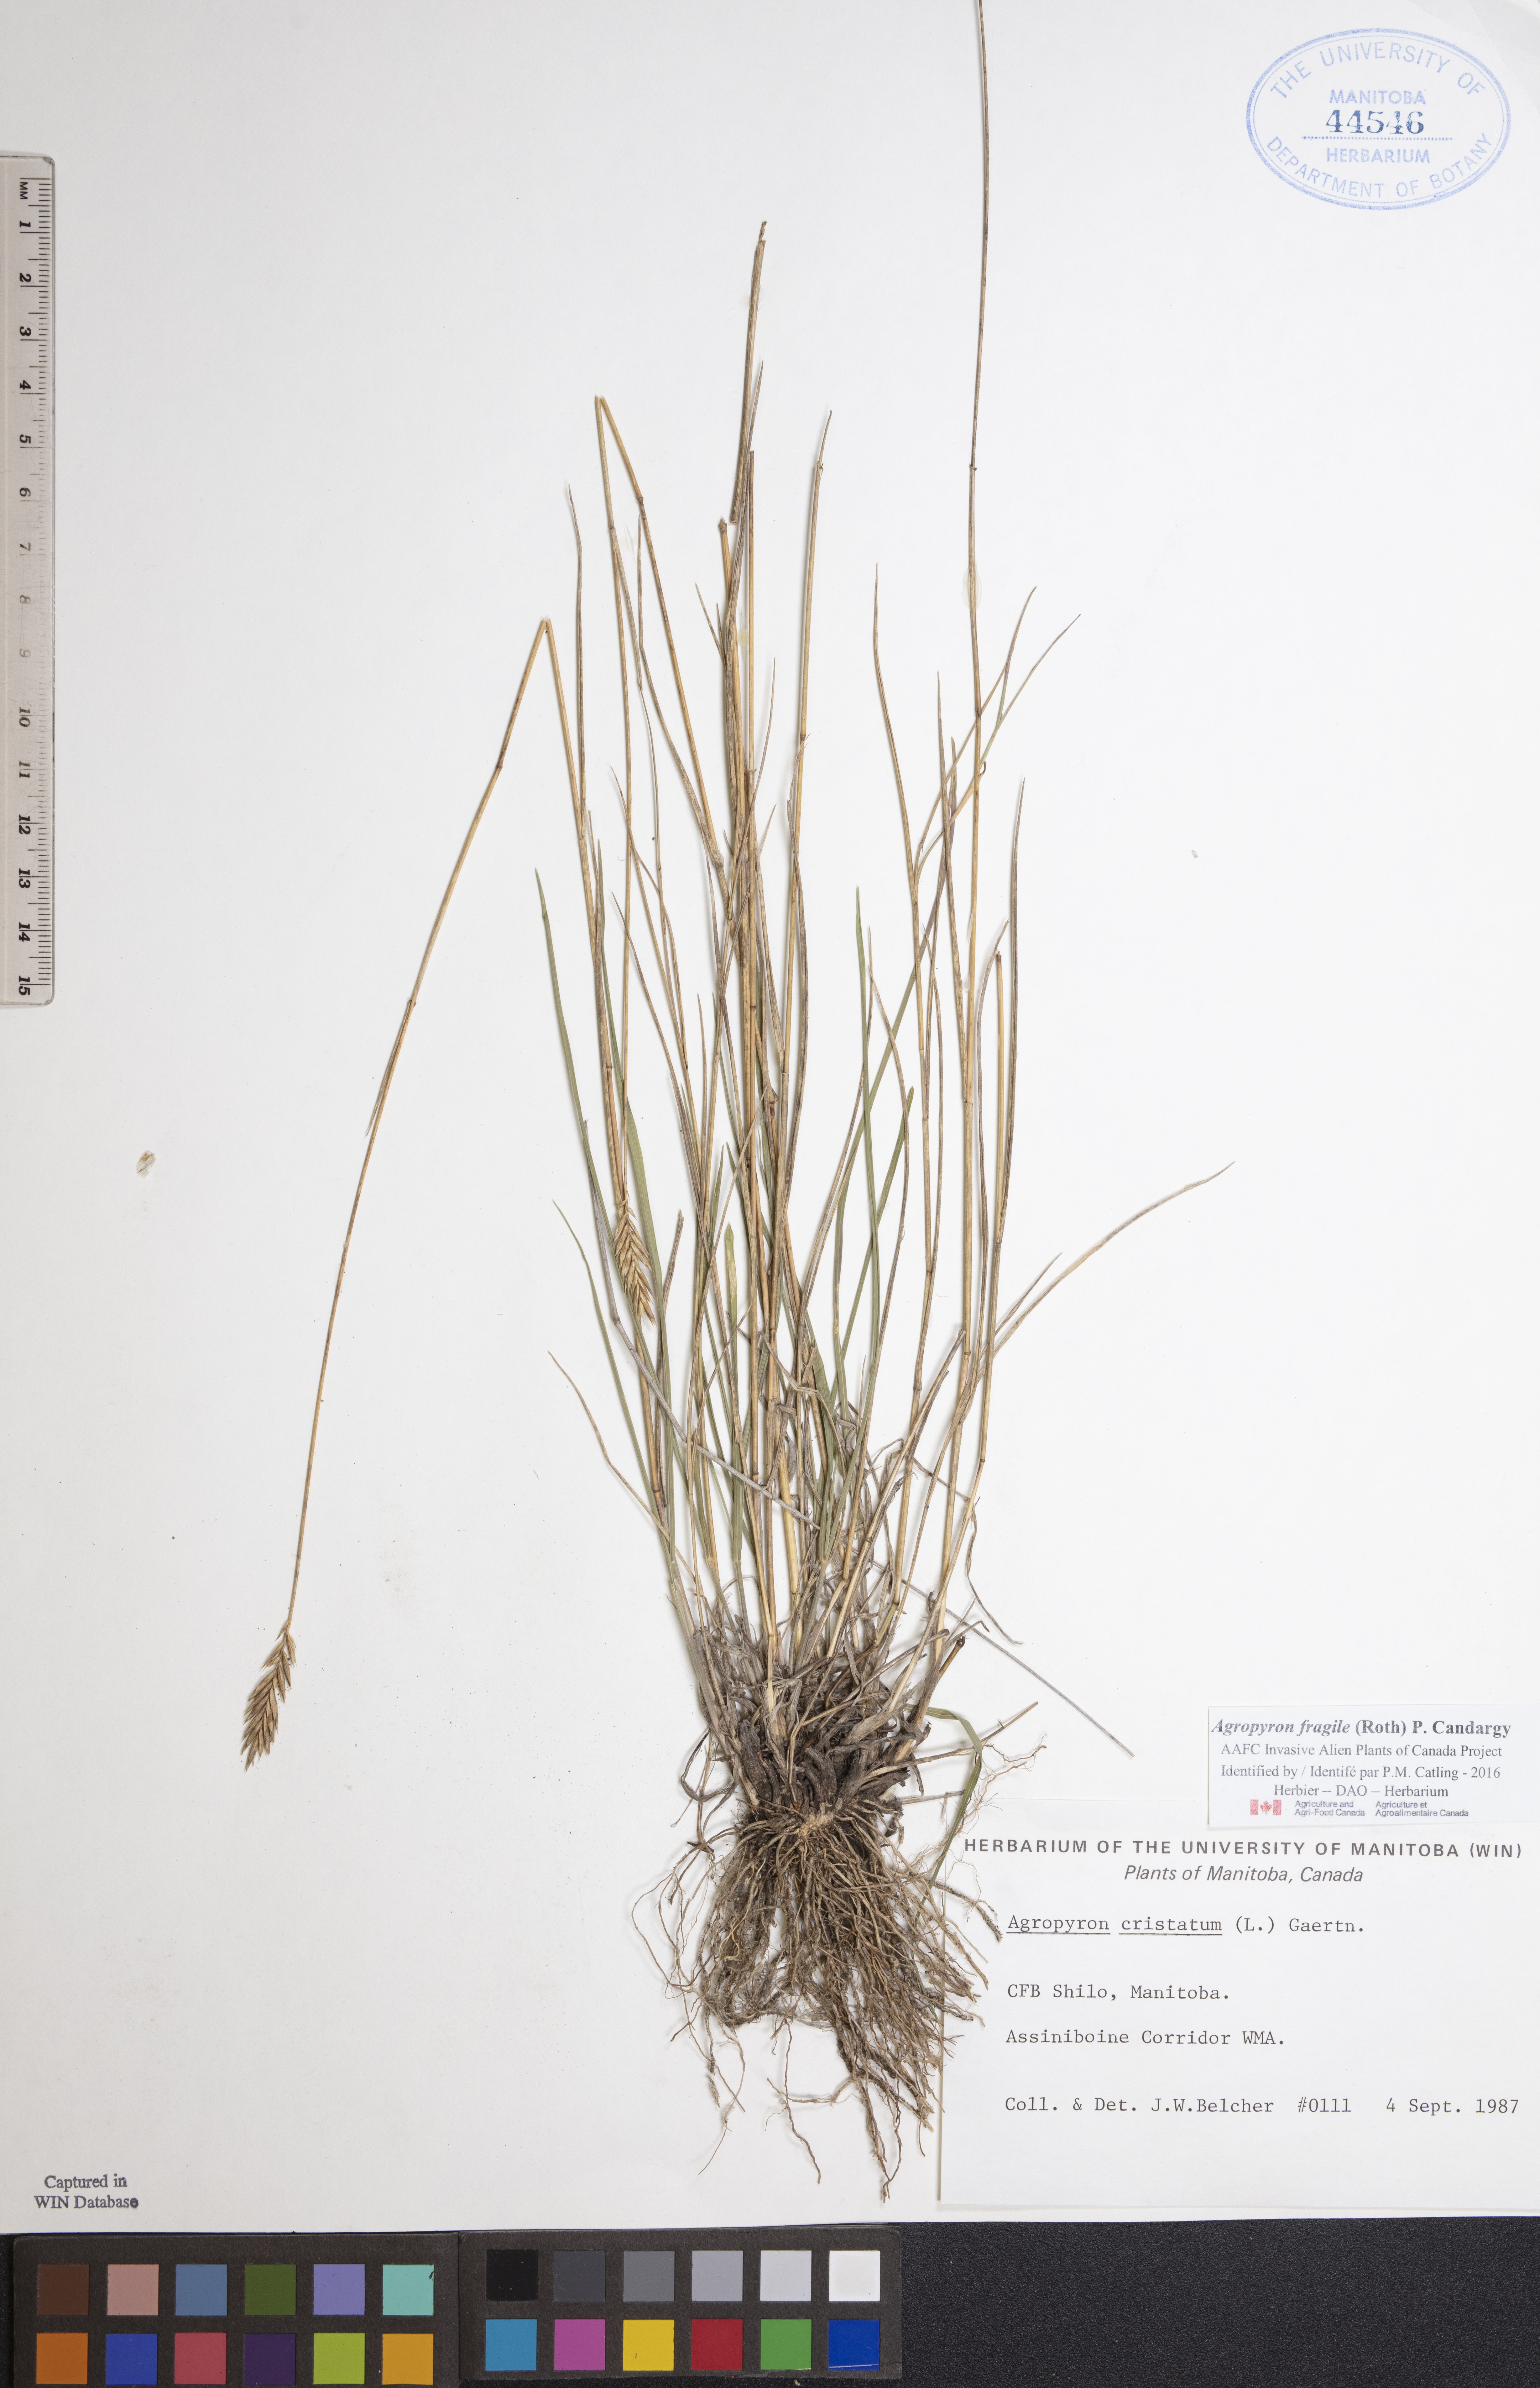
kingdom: Plantae
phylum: Tracheophyta
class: Liliopsida
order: Poales
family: Poaceae
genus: Agropyron
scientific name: Agropyron fragile
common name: Siberian wheatgrass
